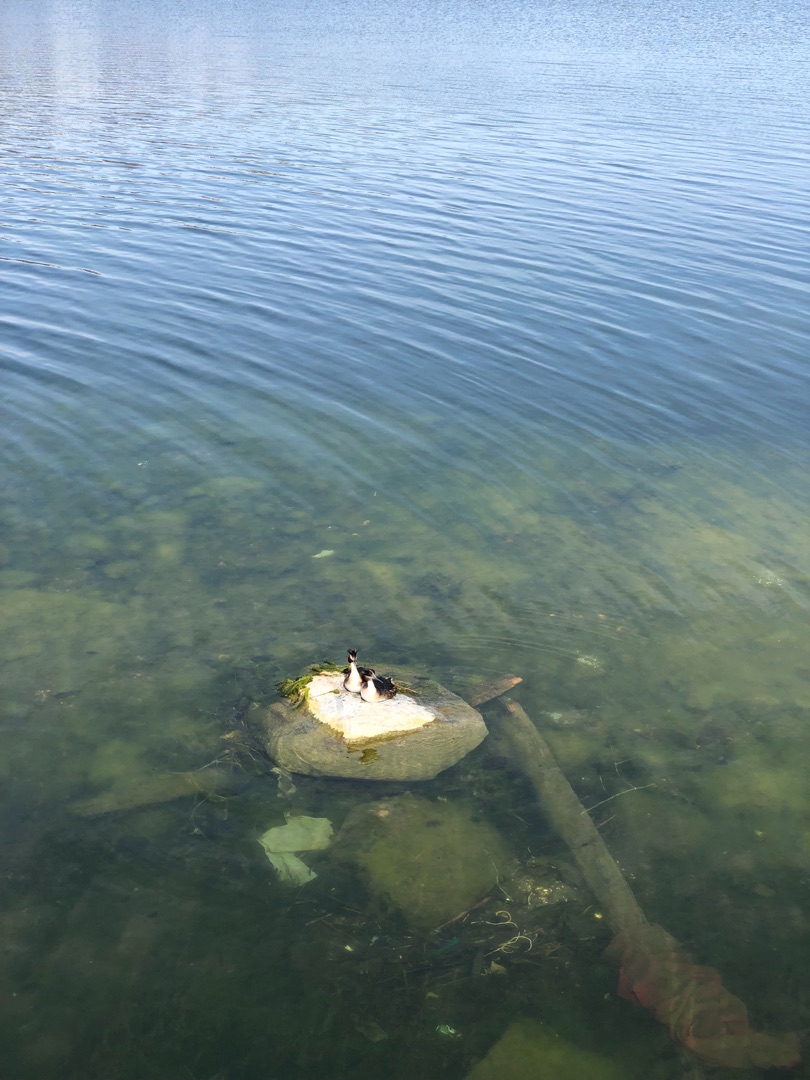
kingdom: Animalia
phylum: Chordata
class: Aves
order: Podicipediformes
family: Podicipedidae
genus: Podiceps
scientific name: Podiceps cristatus
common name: Toppet lappedykker
